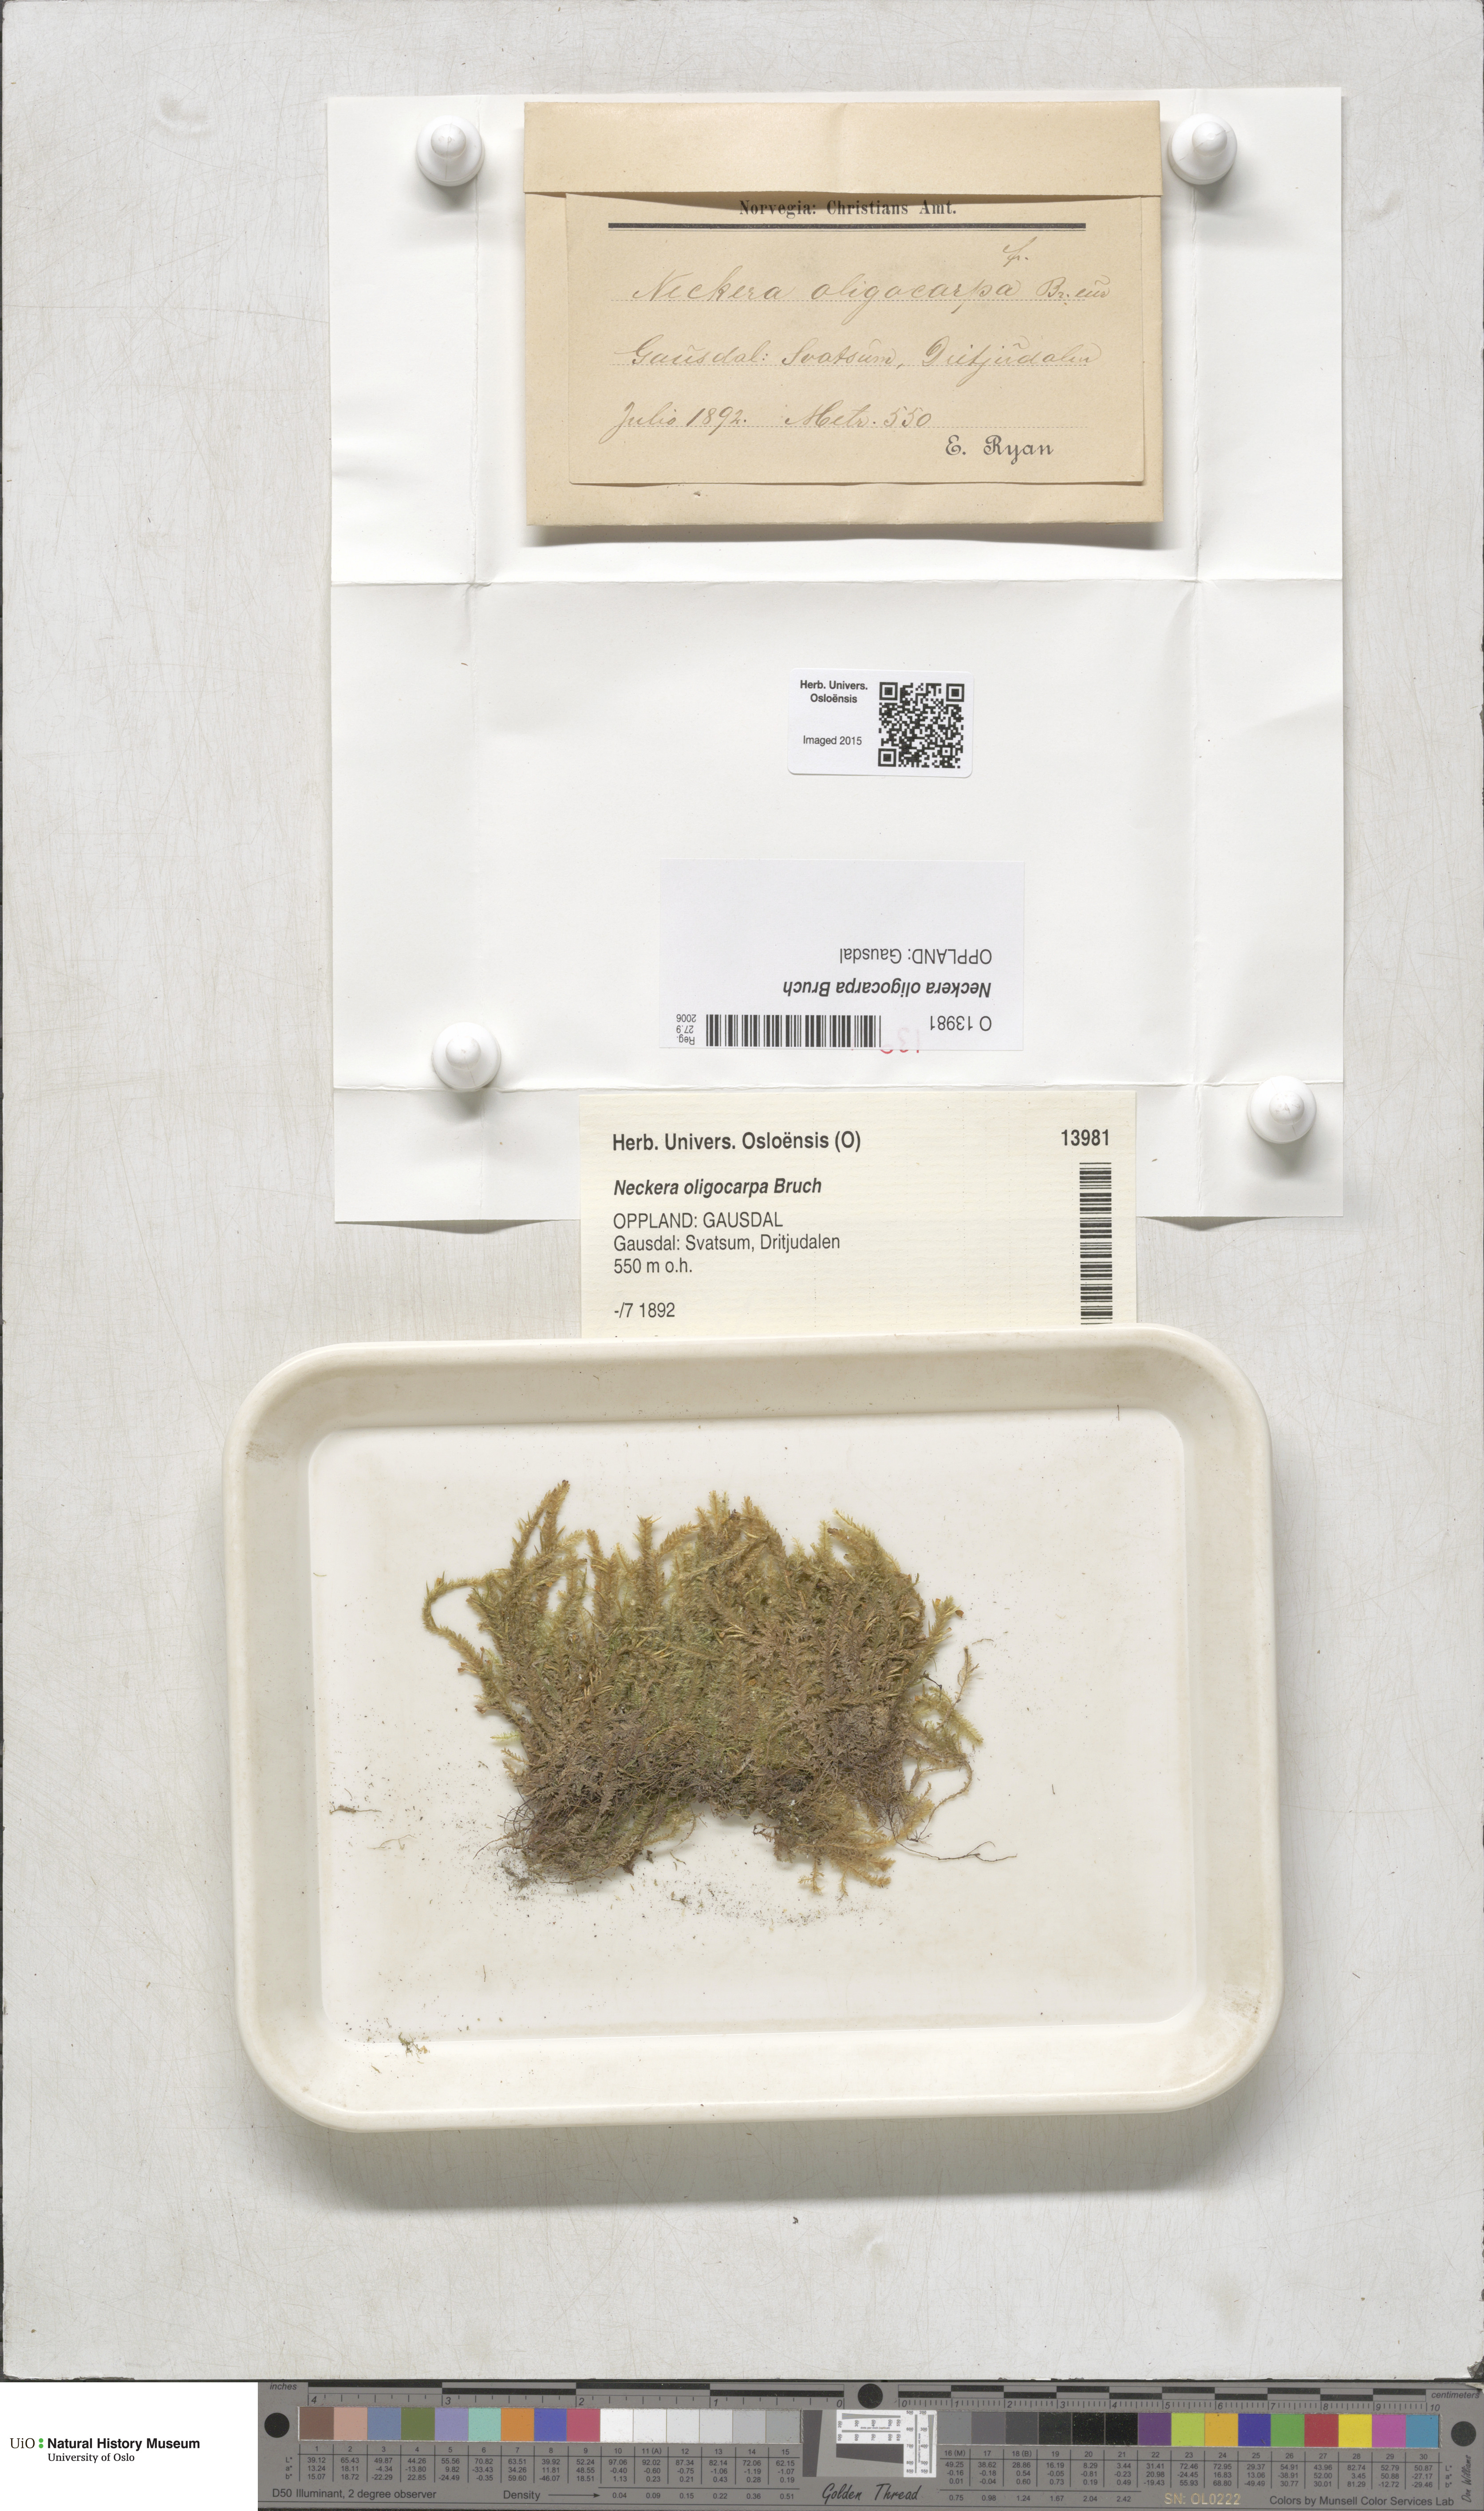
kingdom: Plantae
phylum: Bryophyta
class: Bryopsida
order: Hypnales
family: Neckeraceae
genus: Neckera
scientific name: Neckera oligocarpa
